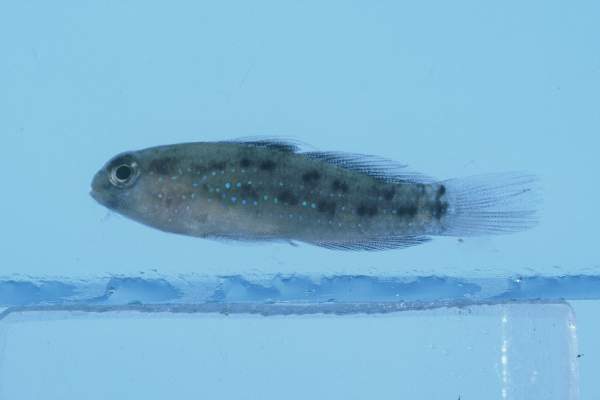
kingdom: Animalia
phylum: Chordata
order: Perciformes
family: Gobiidae
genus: Asterropteryx
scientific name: Asterropteryx semipunctata
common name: Starry goby
